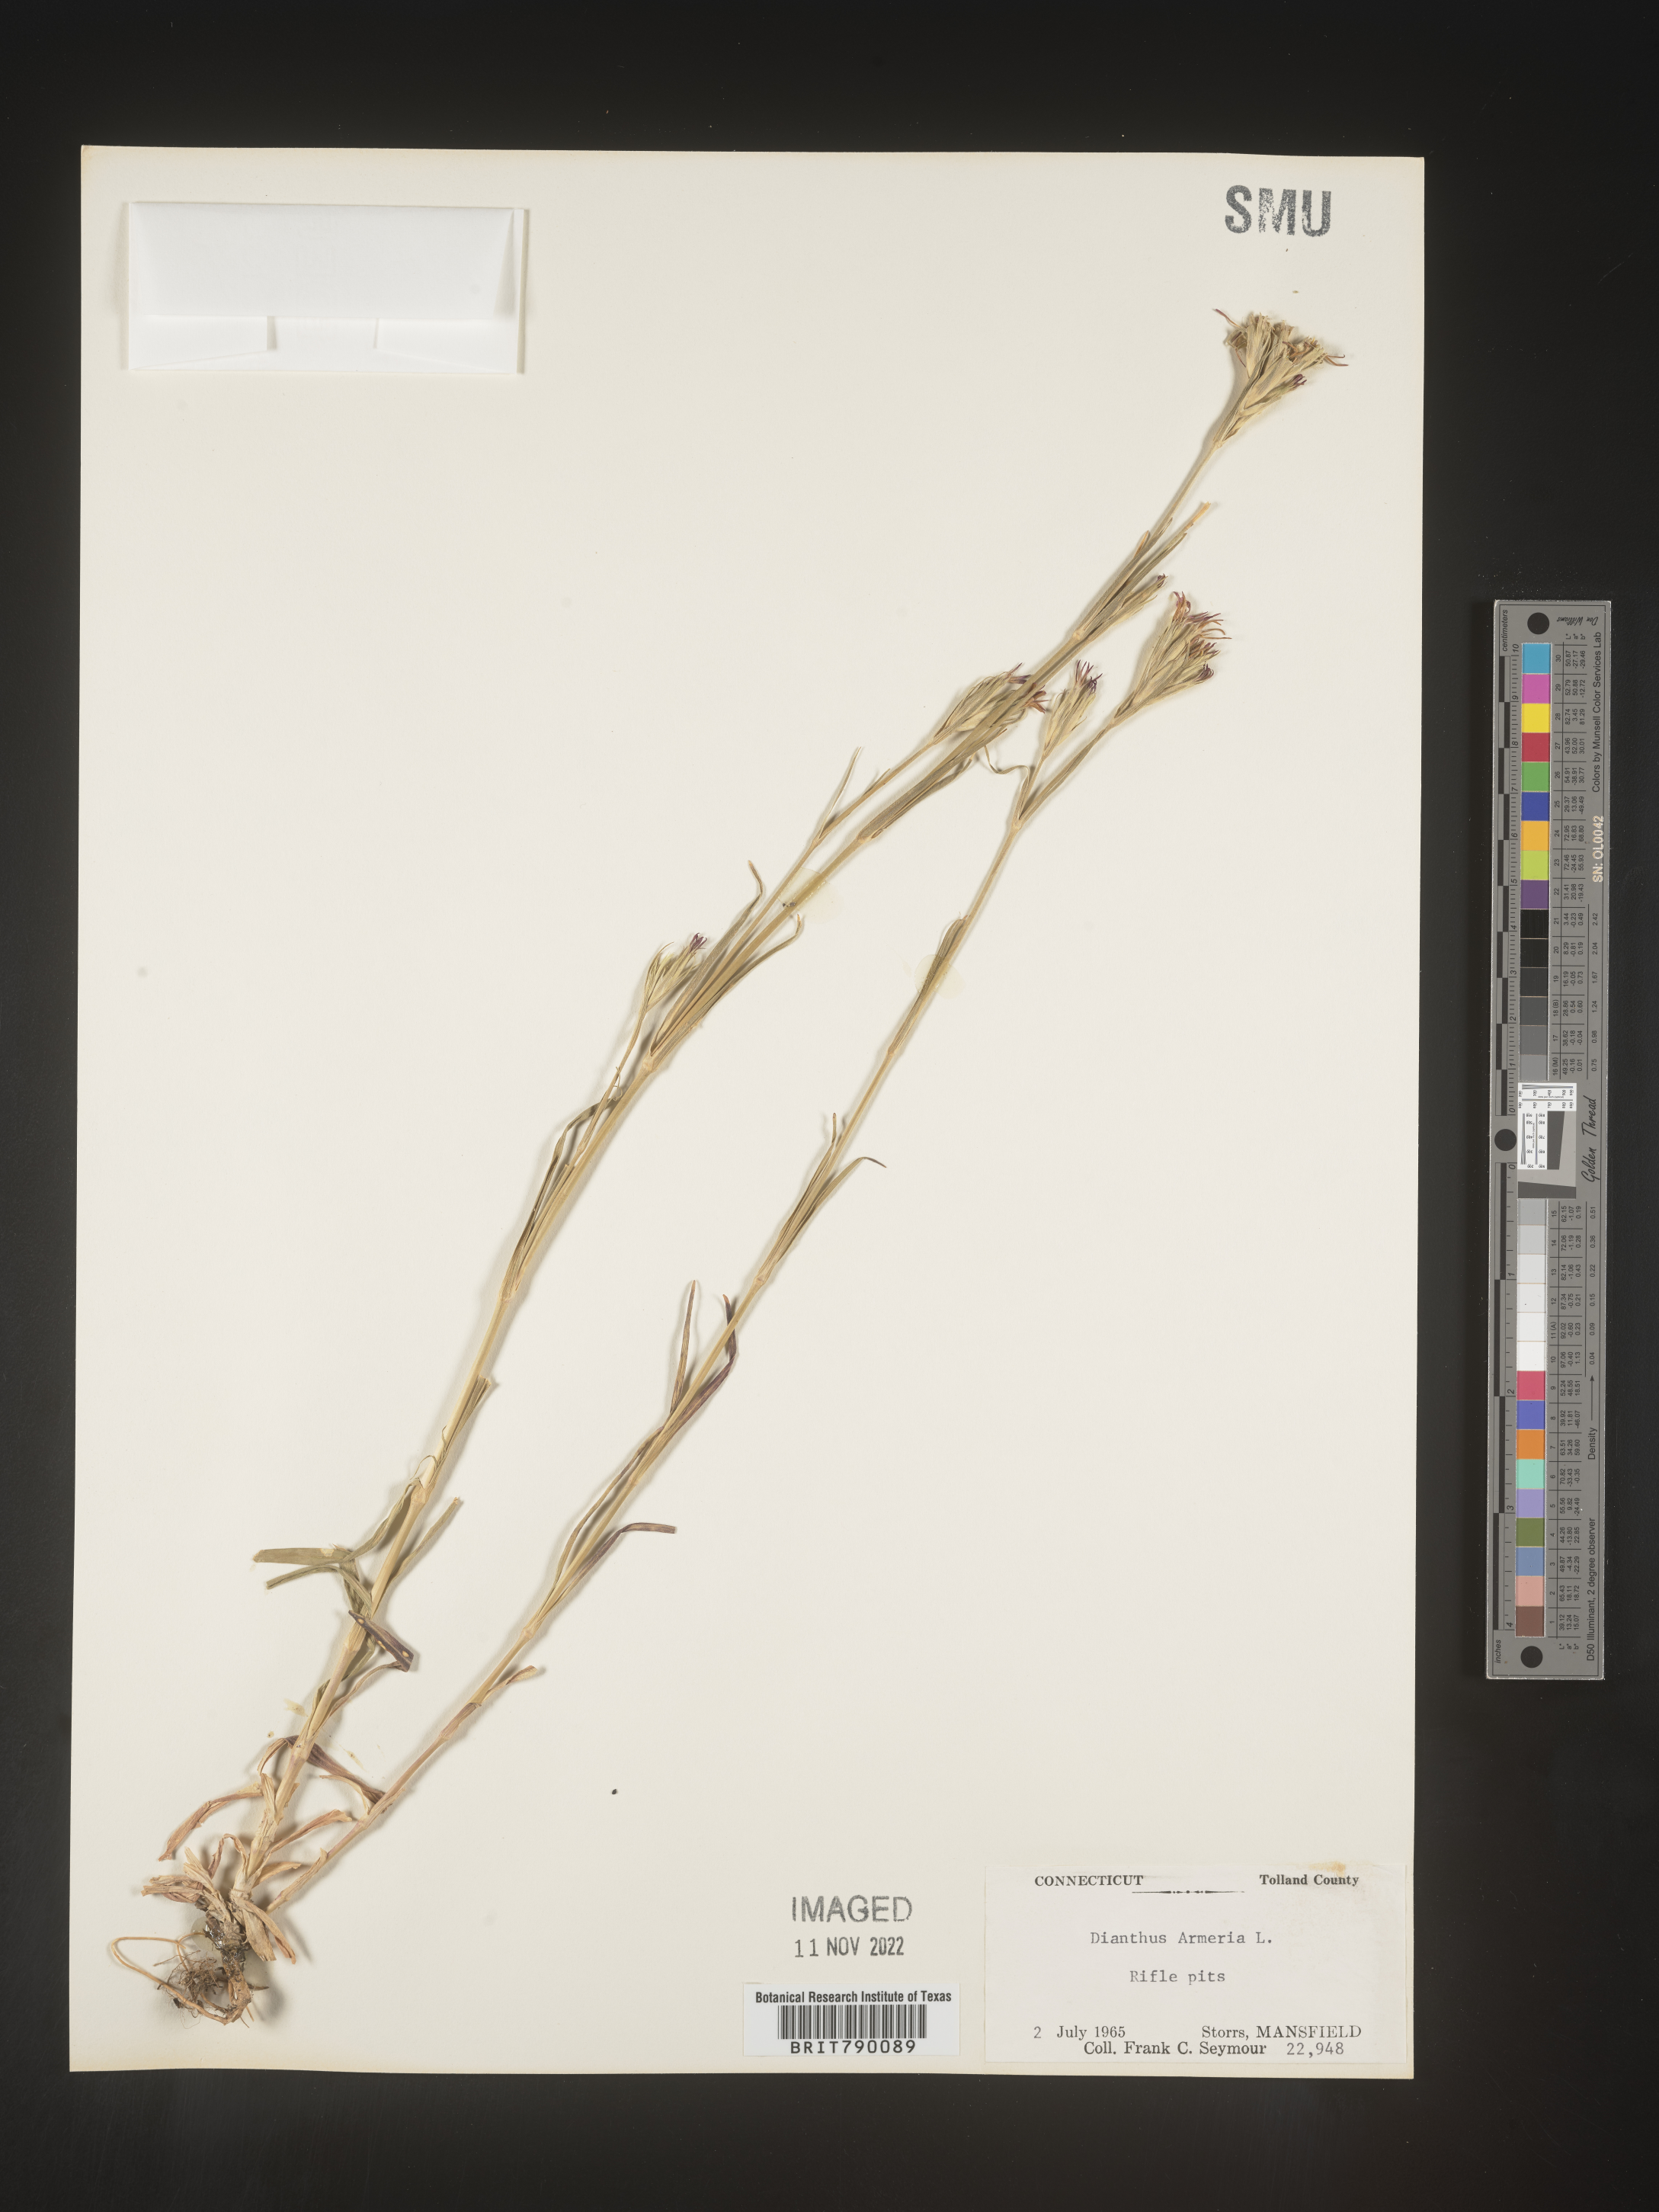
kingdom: Plantae
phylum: Tracheophyta
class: Magnoliopsida
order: Caryophyllales
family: Caryophyllaceae
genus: Dianthus
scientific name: Dianthus armeria
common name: Deptford pink
